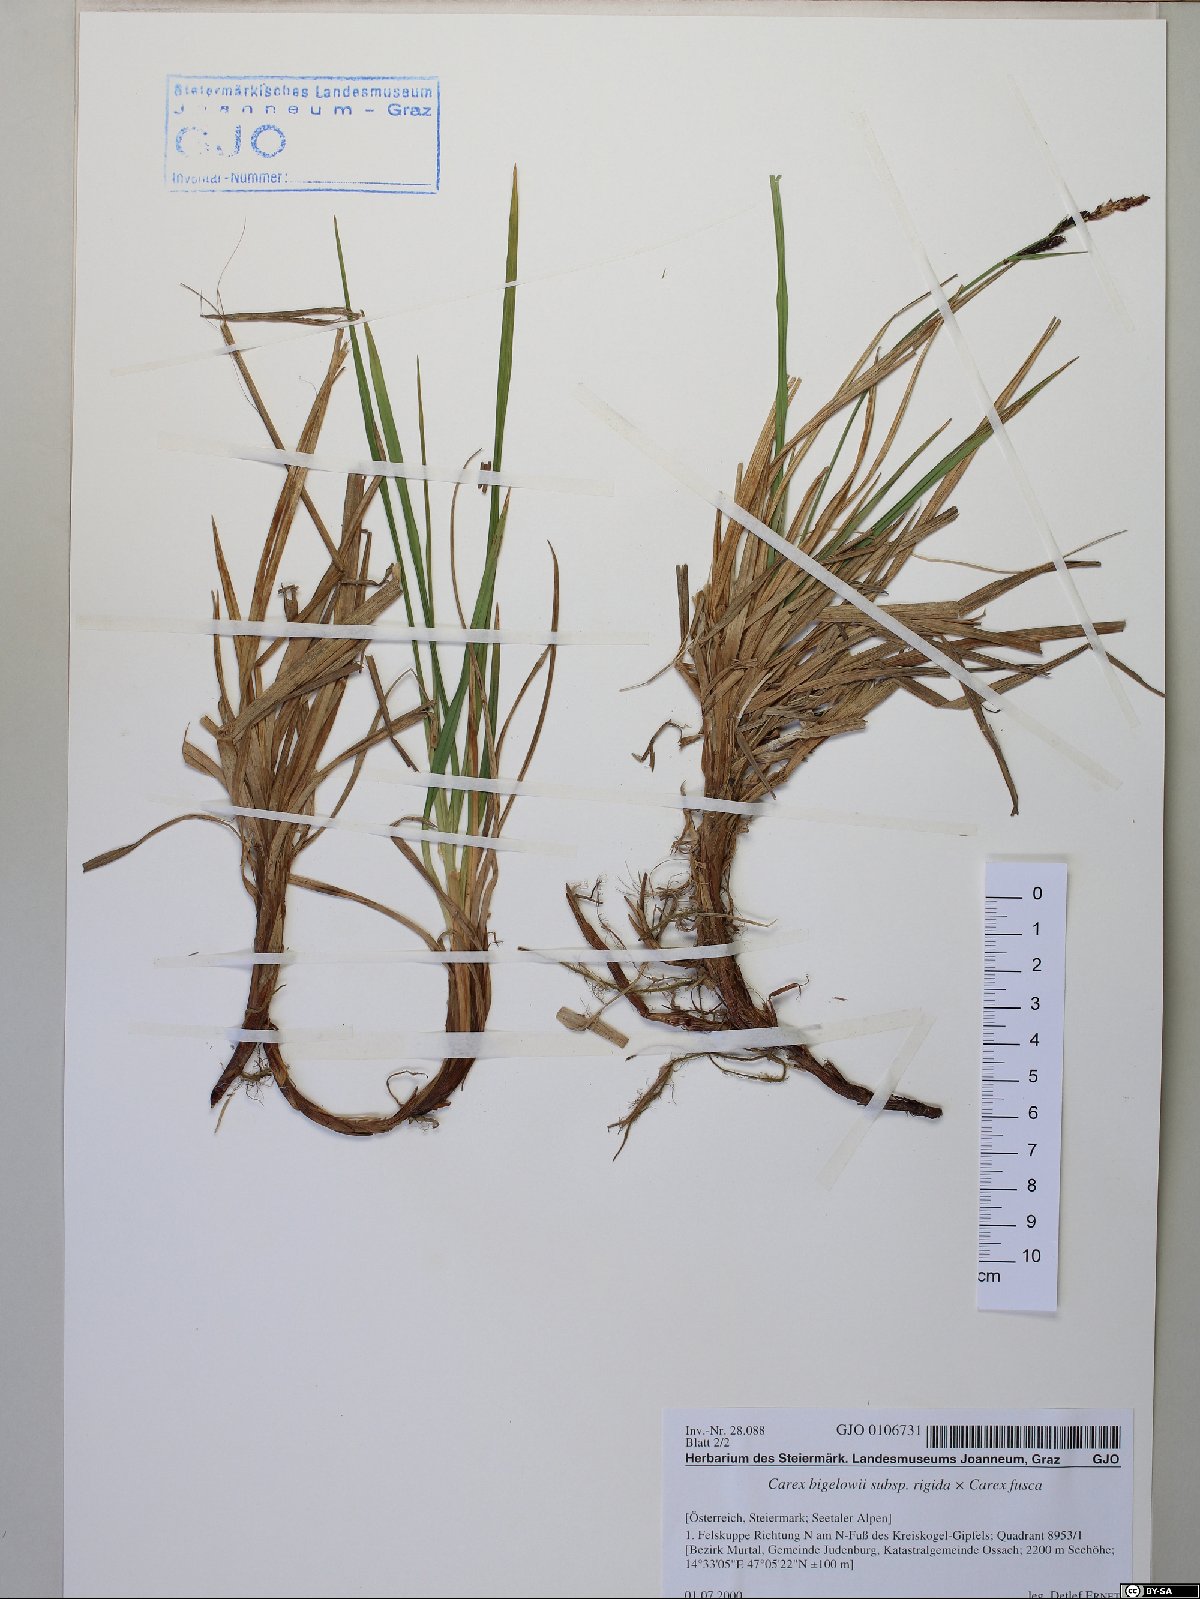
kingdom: Plantae
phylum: Tracheophyta
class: Liliopsida
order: Poales
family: Cyperaceae
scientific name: Cyperaceae
